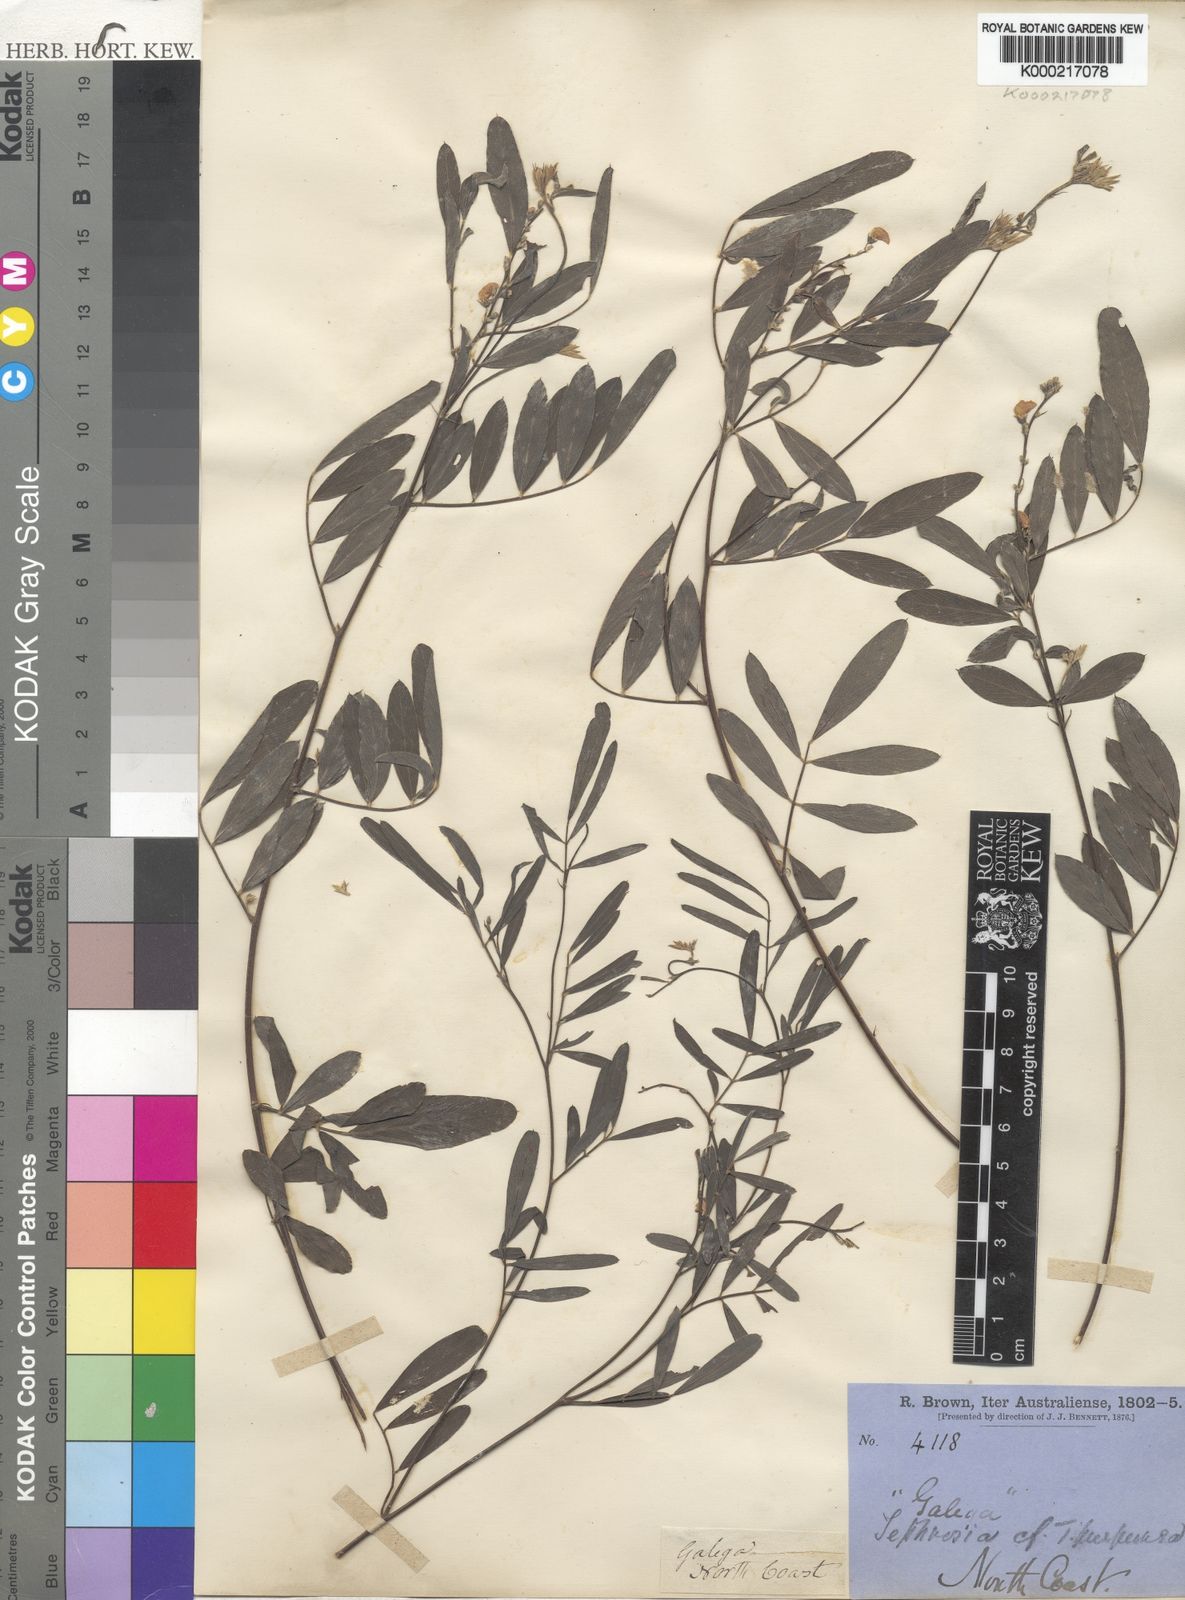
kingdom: Plantae
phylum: Tracheophyta
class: Magnoliopsida
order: Fabales
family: Fabaceae
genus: Tephrosia
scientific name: Tephrosia purpurea
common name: Fishpoison
